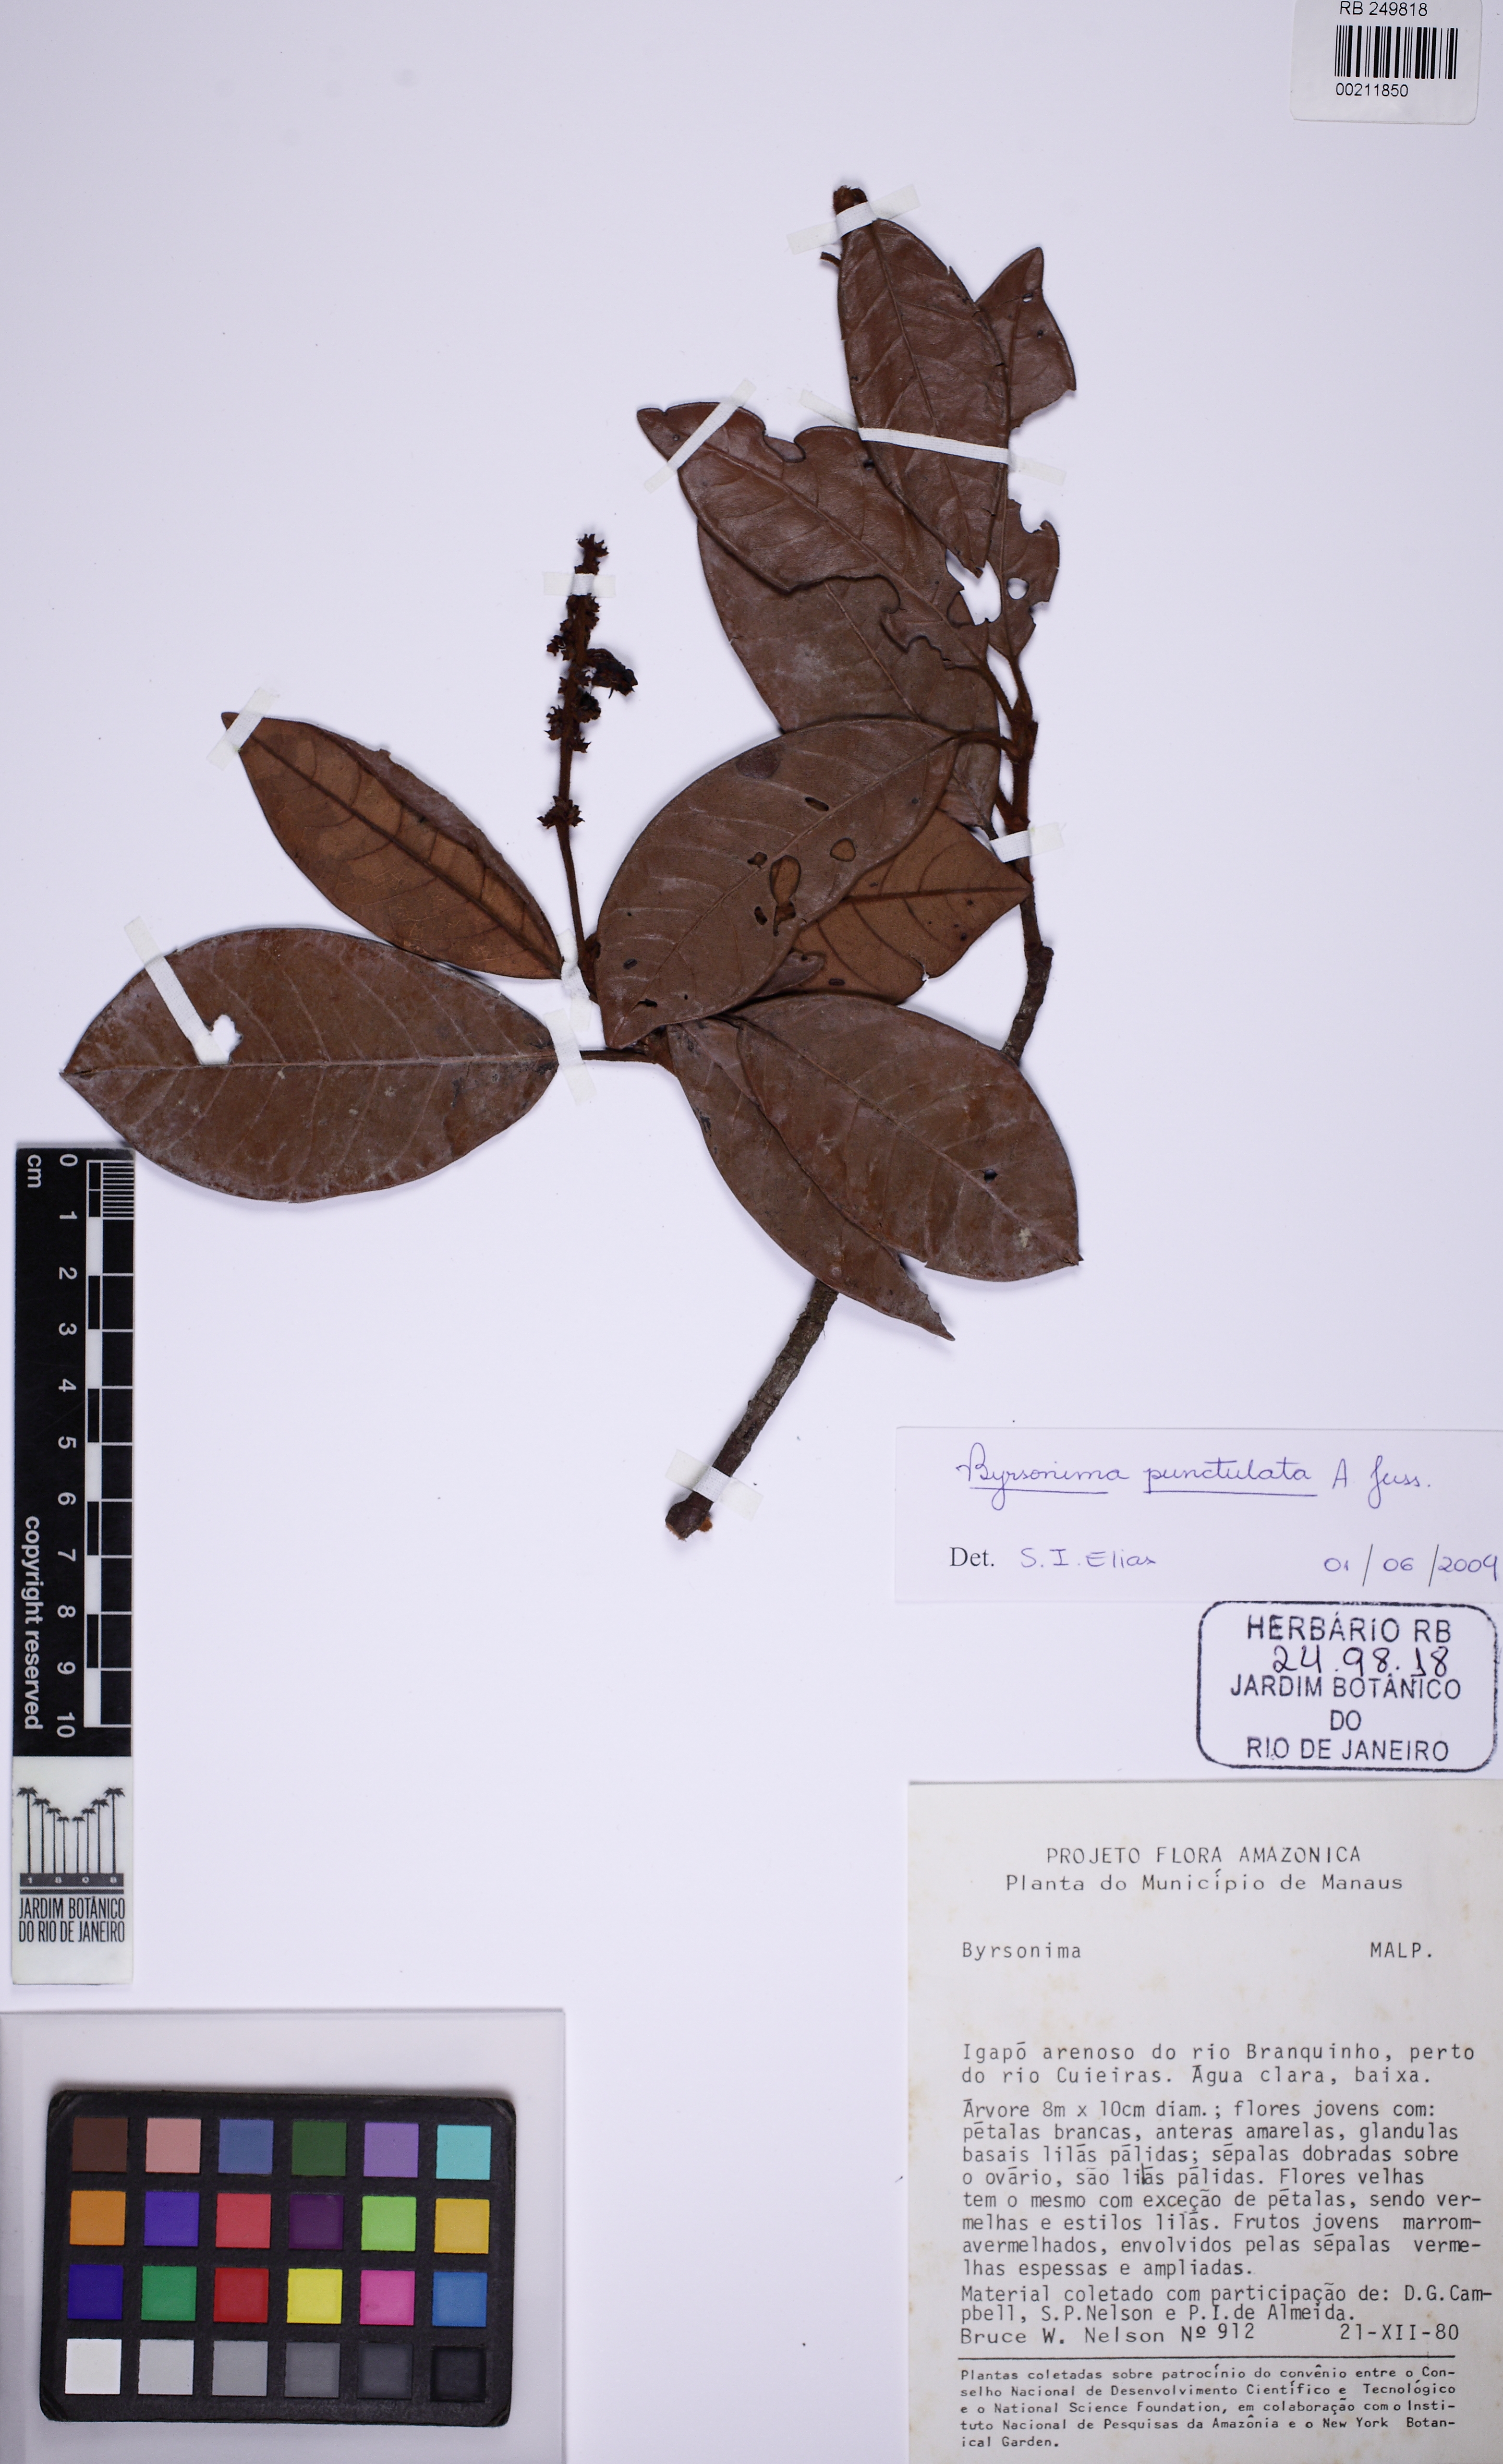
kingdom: Plantae
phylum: Tracheophyta
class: Magnoliopsida
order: Malpighiales
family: Malpighiaceae
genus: Byrsonima
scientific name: Byrsonima punctulata
